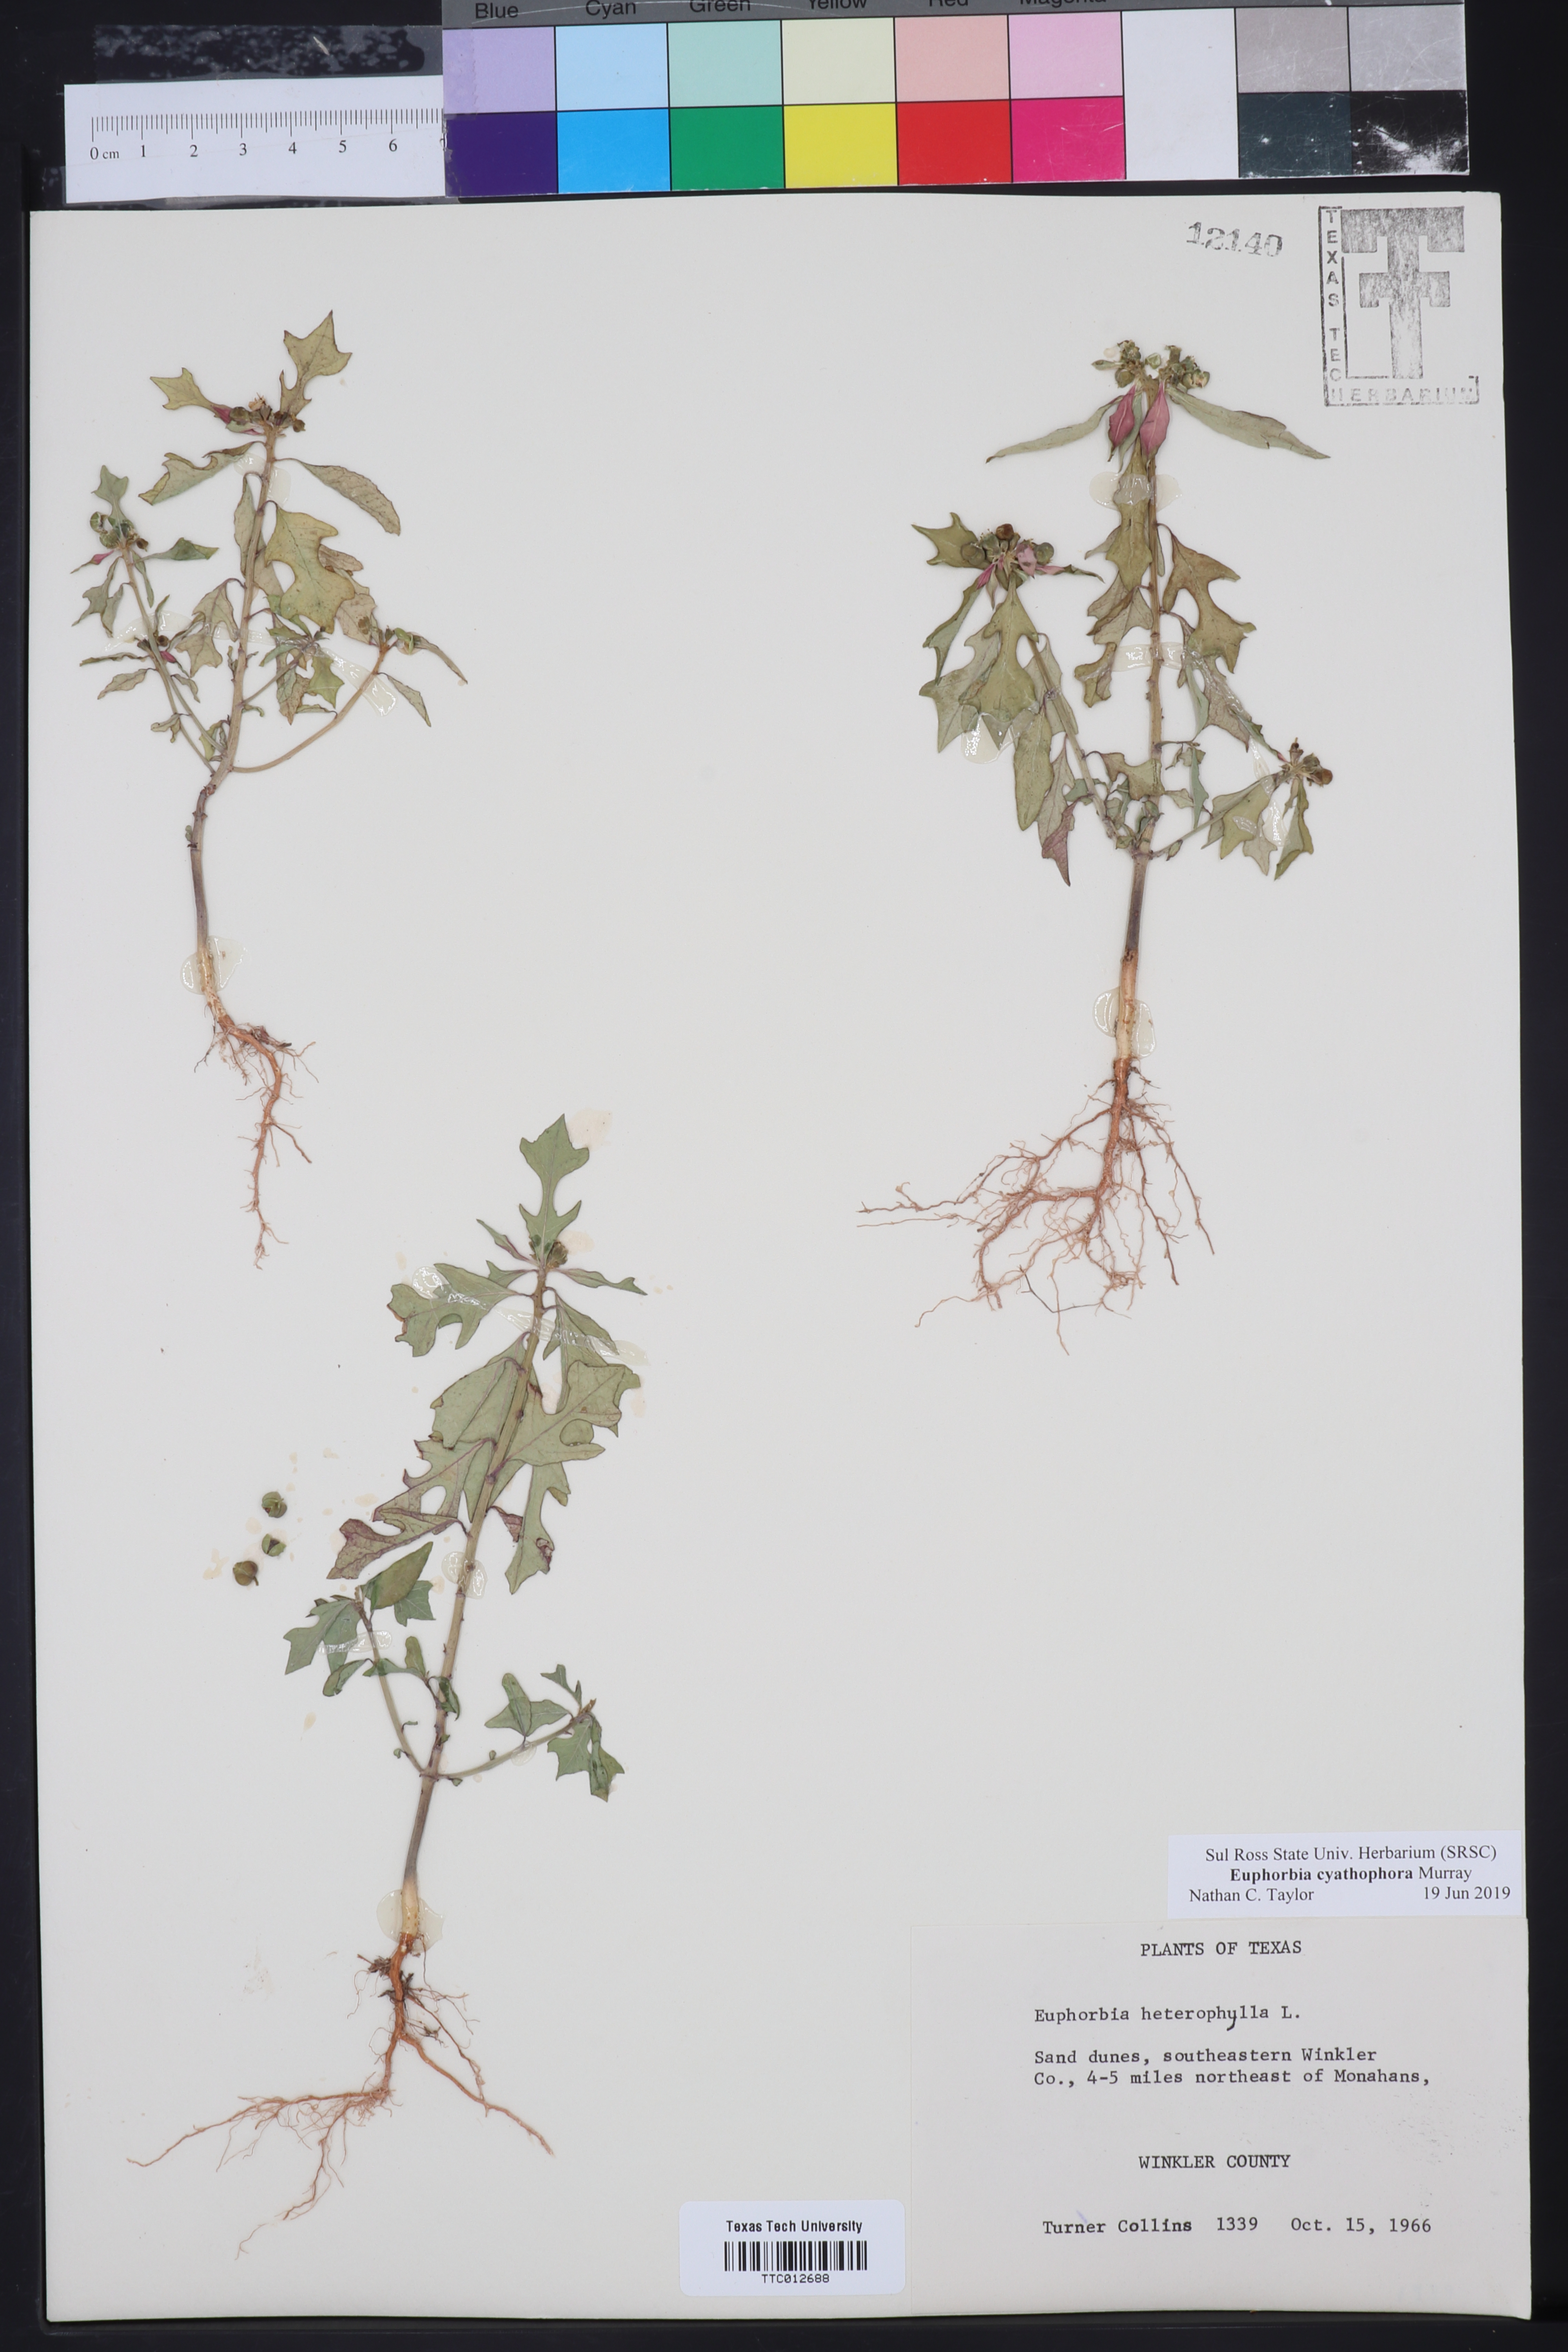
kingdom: Plantae
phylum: Tracheophyta
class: Magnoliopsida
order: Malpighiales
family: Euphorbiaceae
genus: Euphorbia
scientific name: Euphorbia heterophylla
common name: Mexican fireplant
